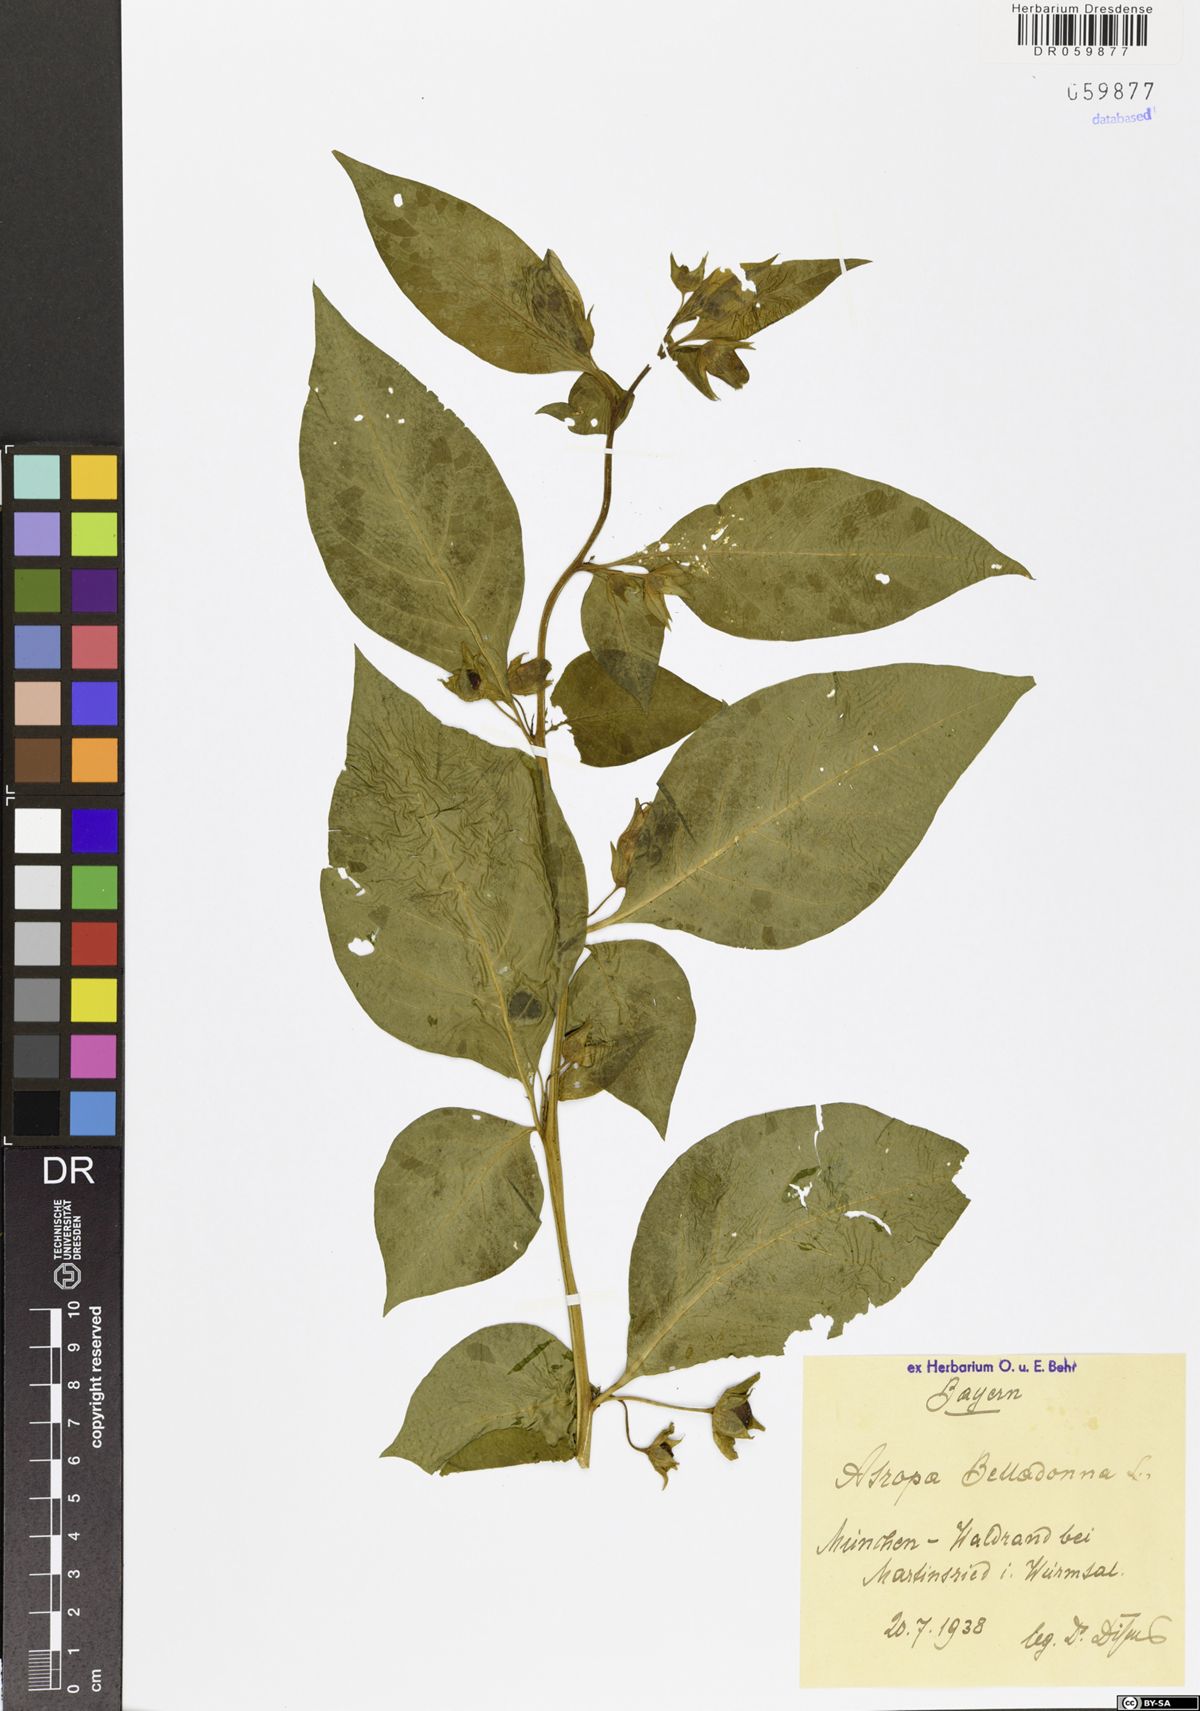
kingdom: Plantae
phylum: Tracheophyta
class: Magnoliopsida
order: Solanales
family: Solanaceae
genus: Atropa
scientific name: Atropa belladonna
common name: Deadly nightshade
